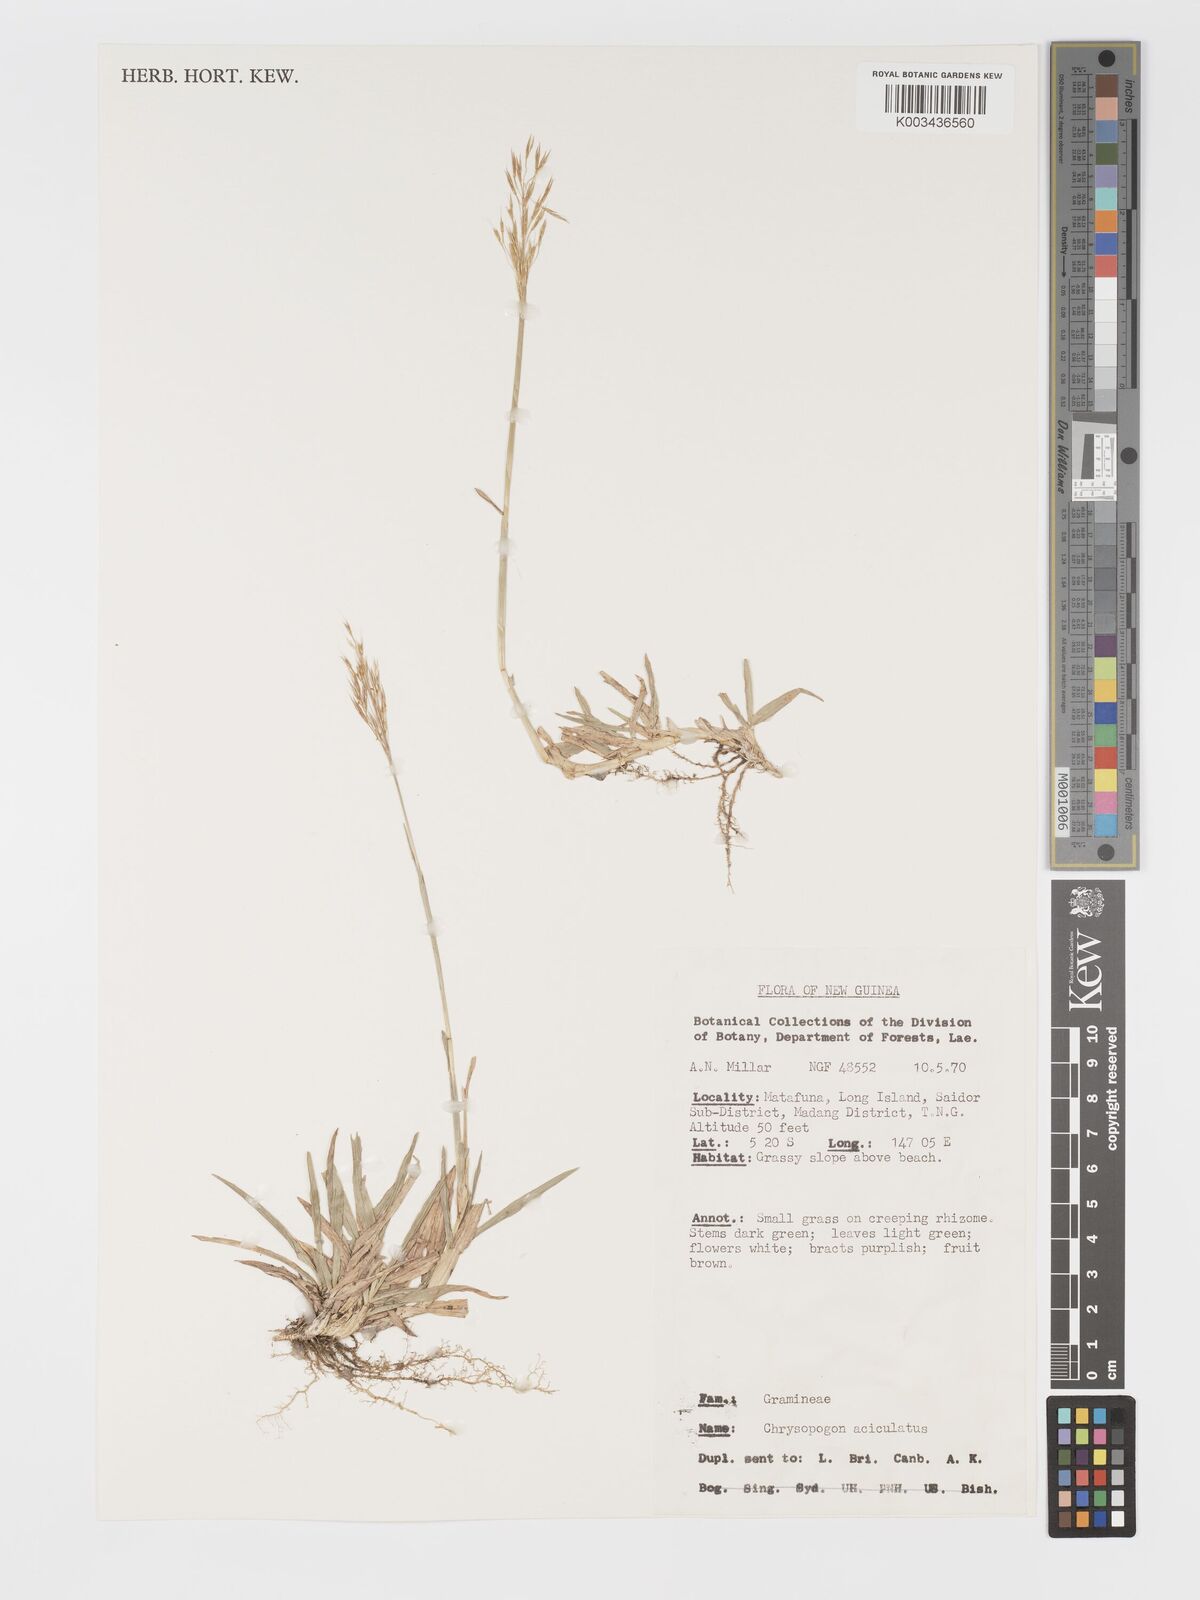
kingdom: Plantae
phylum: Tracheophyta
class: Liliopsida
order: Poales
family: Poaceae
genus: Chrysopogon
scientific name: Chrysopogon aciculatus
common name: Pilipiliula
